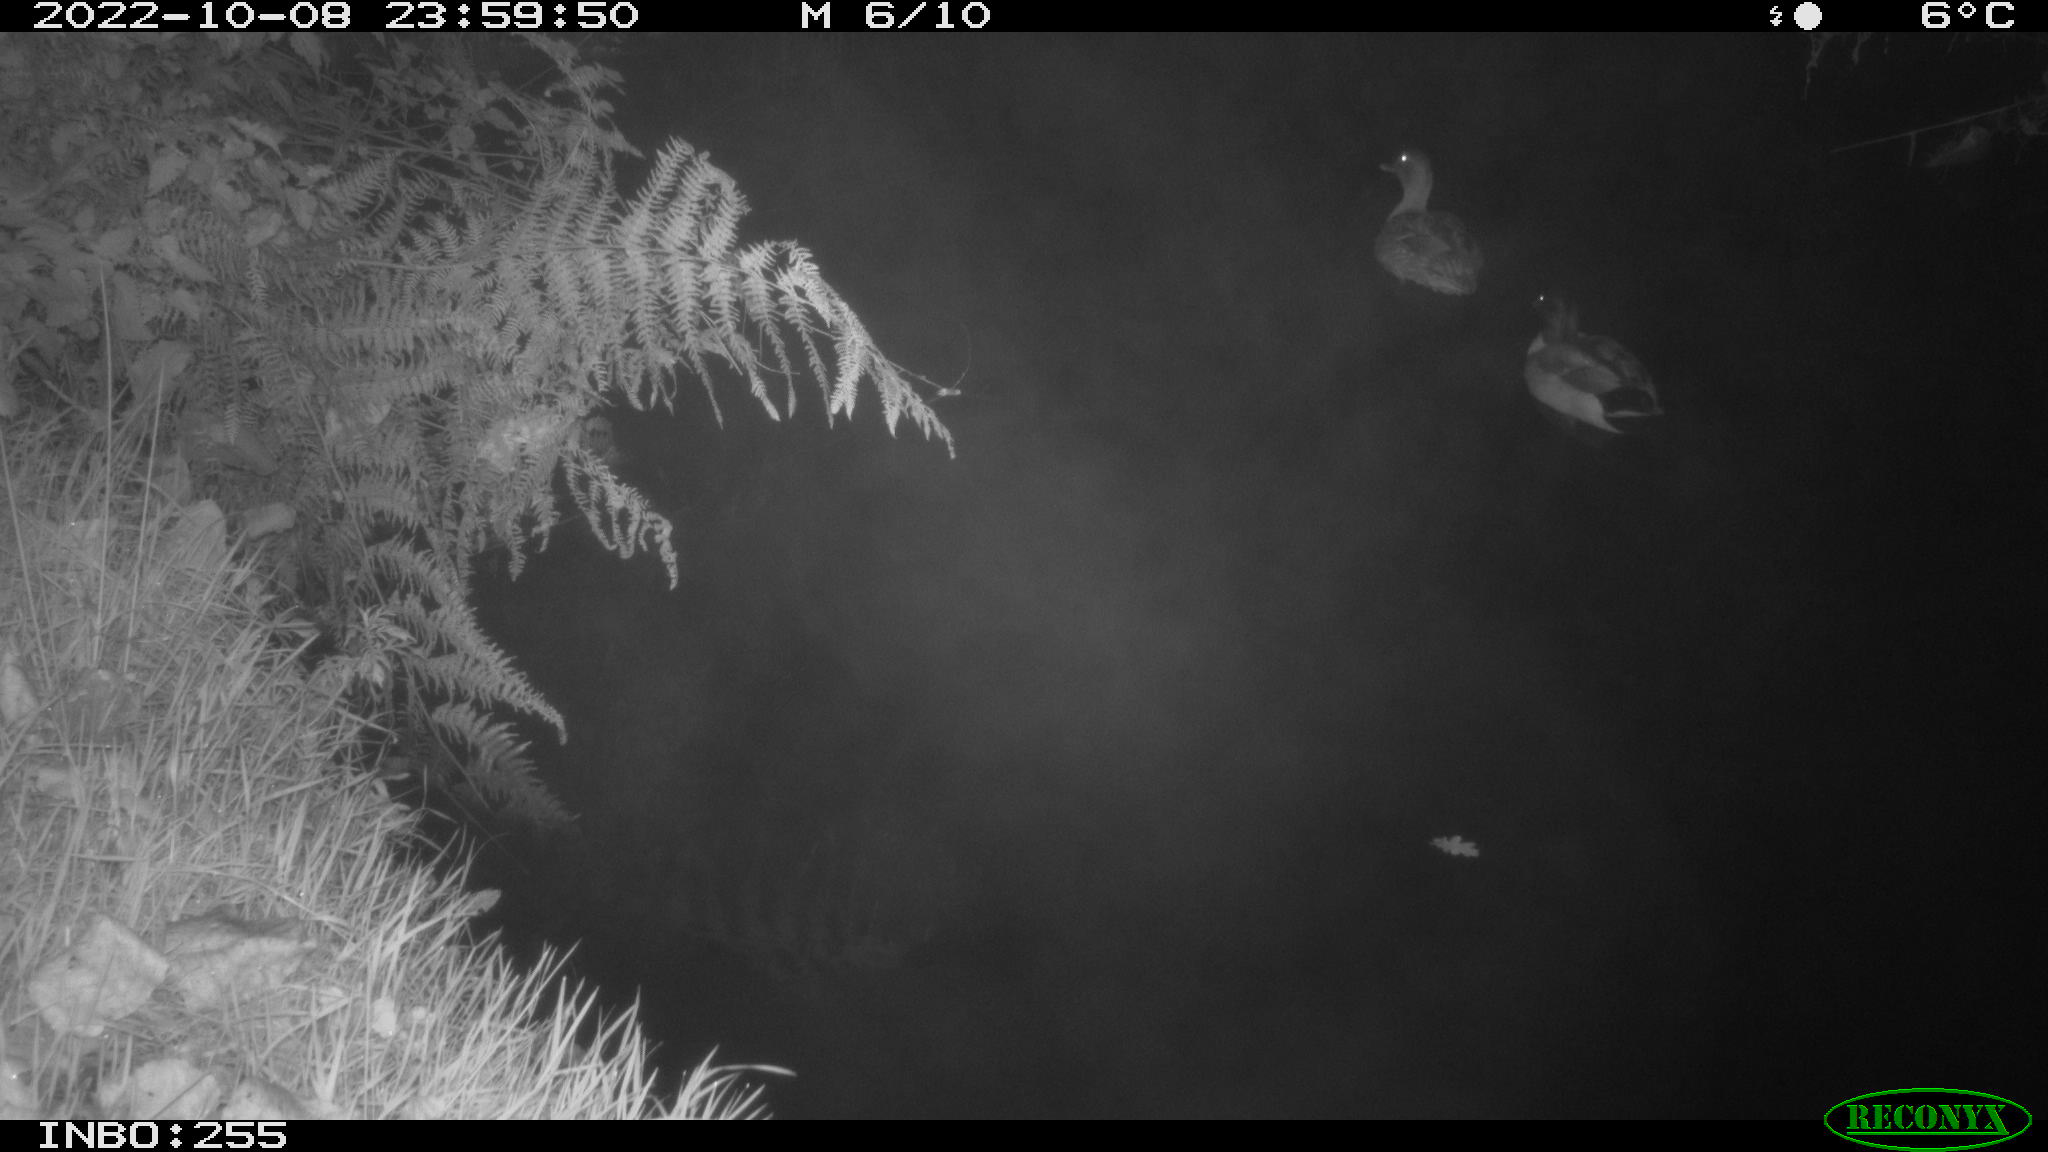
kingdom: Animalia
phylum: Chordata
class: Aves
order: Anseriformes
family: Anatidae
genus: Anas
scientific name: Anas
